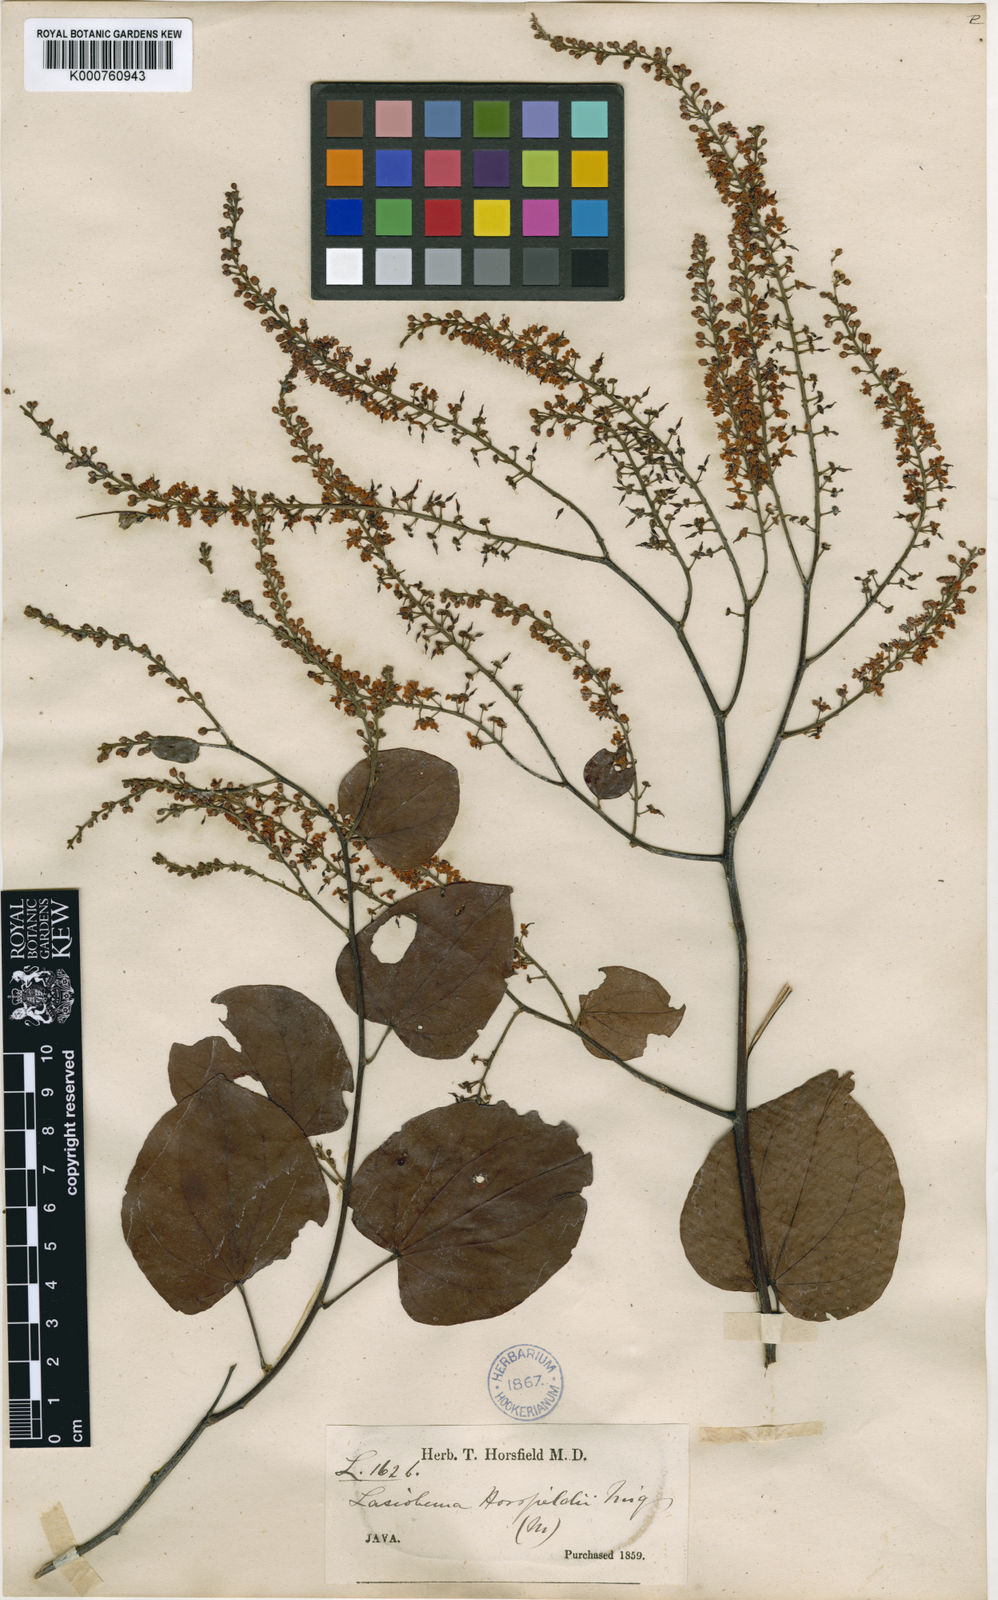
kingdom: Plantae
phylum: Tracheophyta
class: Magnoliopsida
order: Fabales
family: Fabaceae
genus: Phanera
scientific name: Phanera scandens
